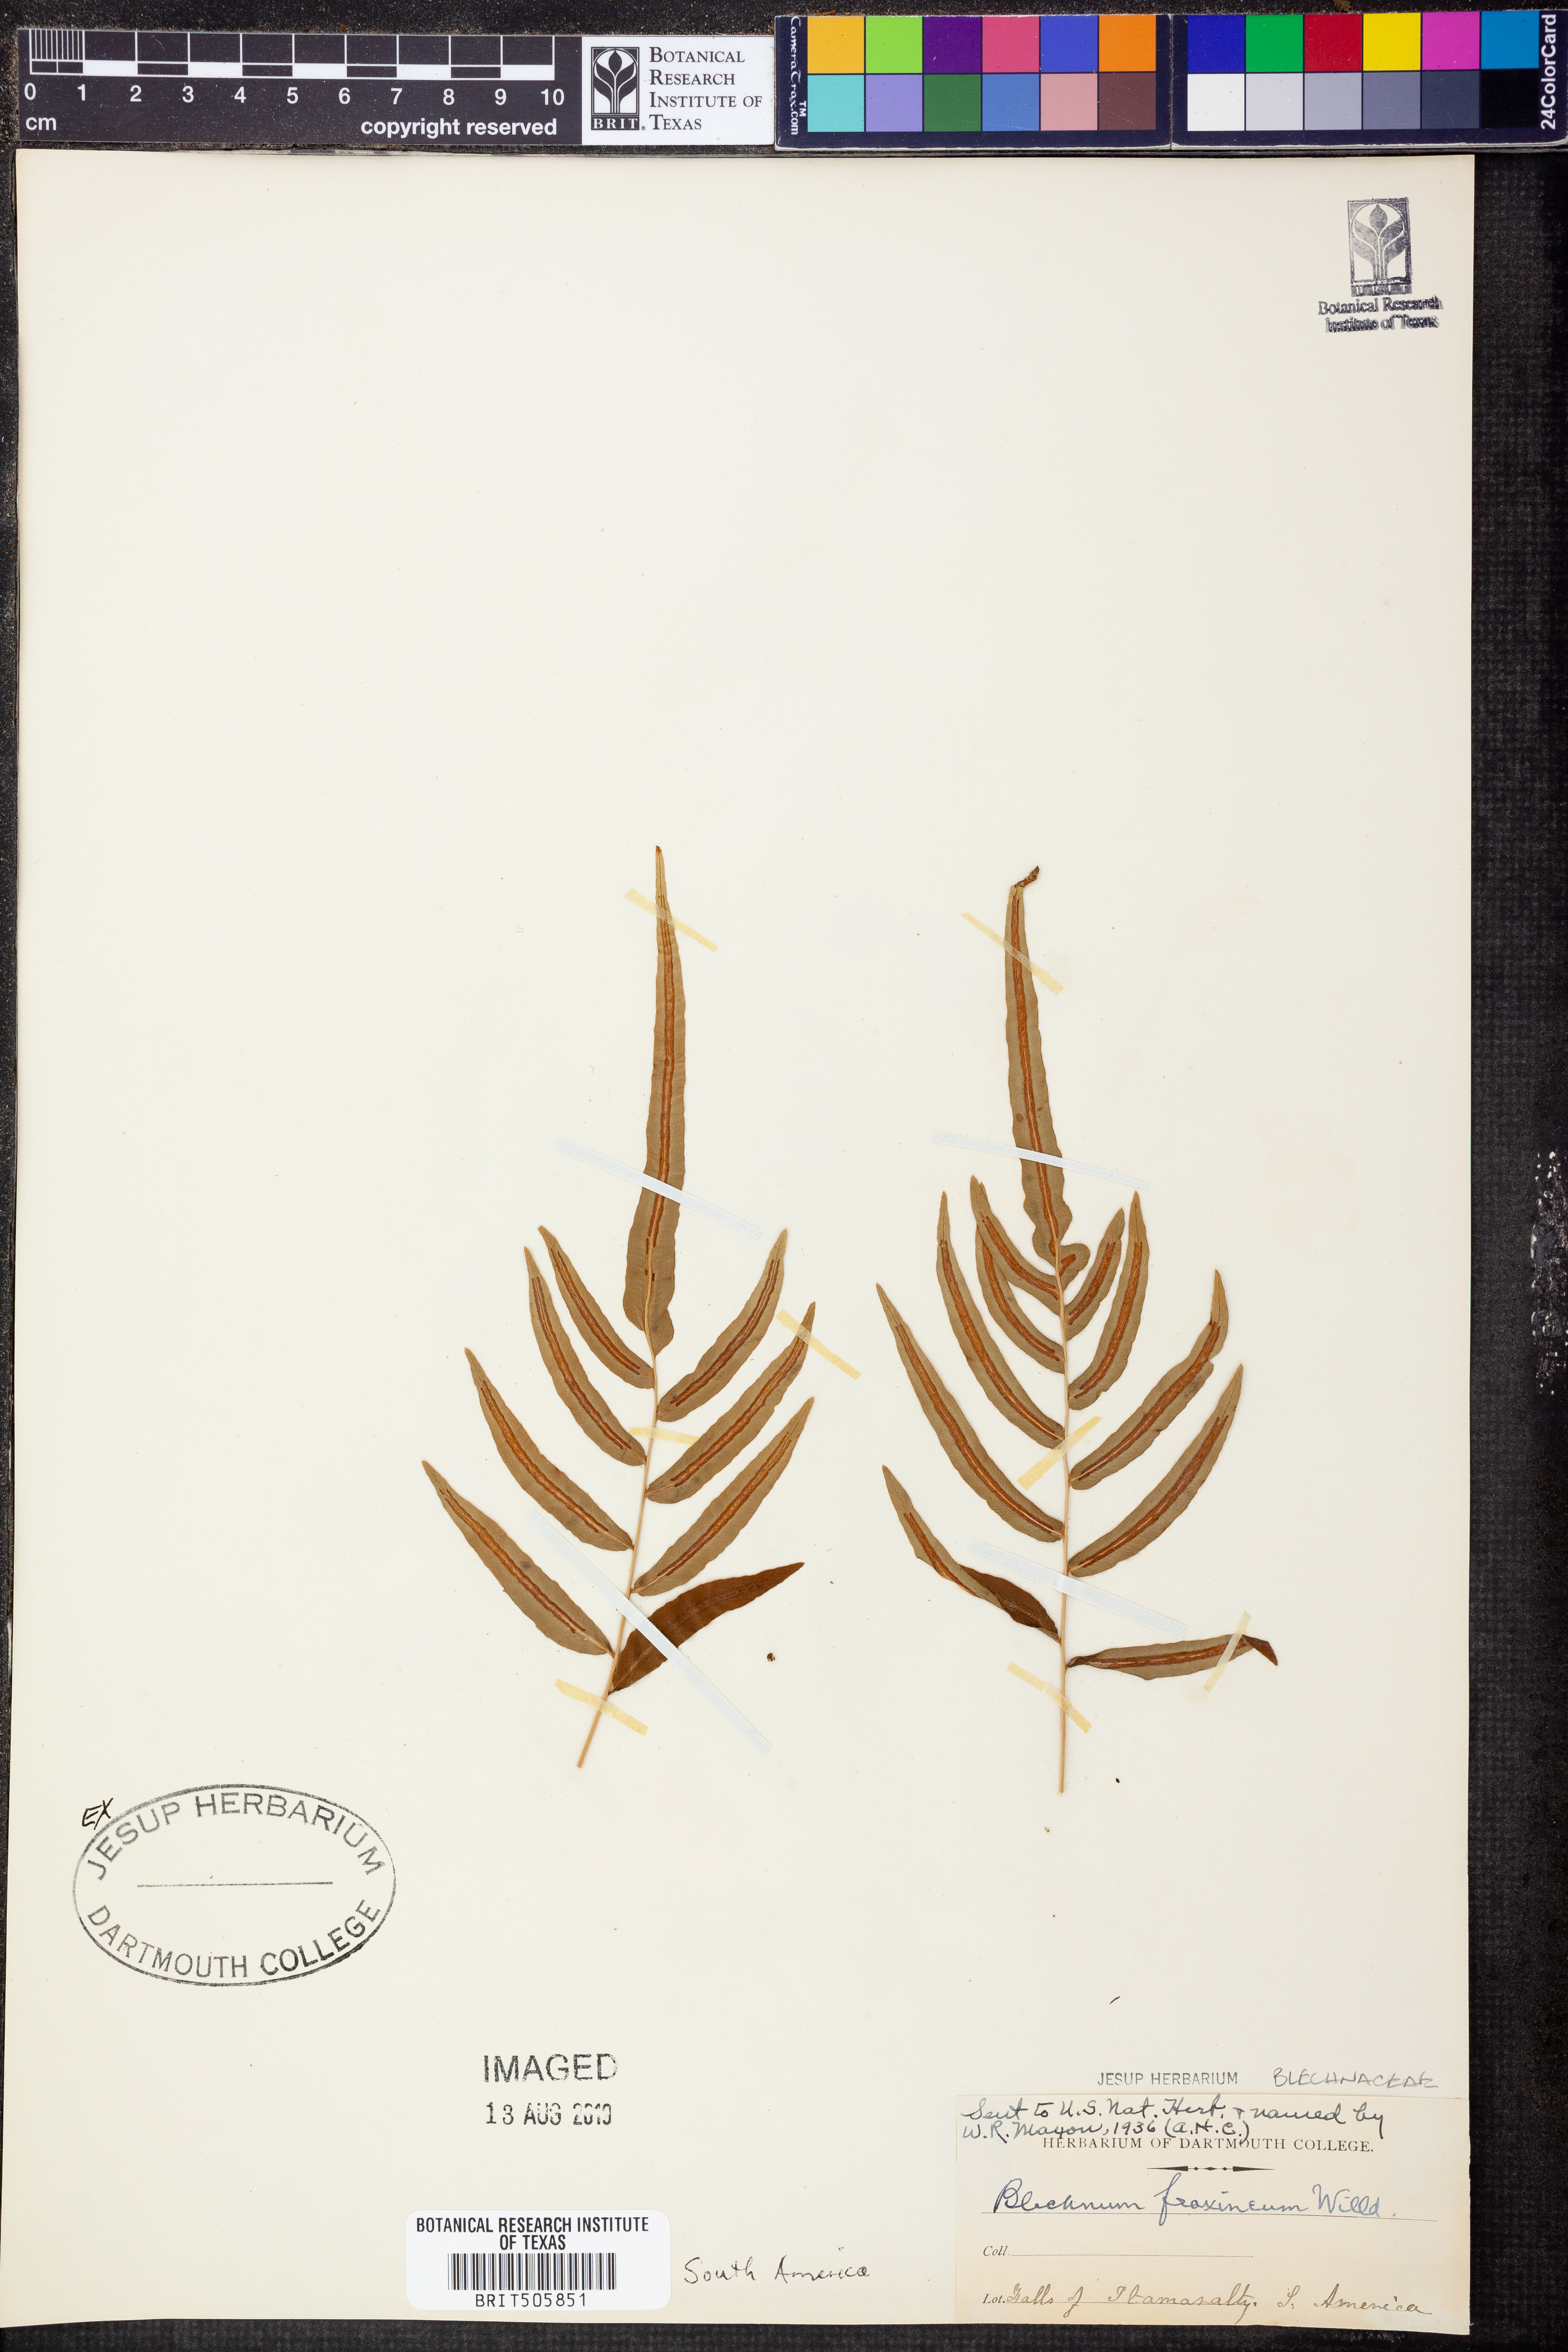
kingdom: Plantae
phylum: Tracheophyta
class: Polypodiopsida
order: Polypodiales
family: Blechnaceae
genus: Blechnum
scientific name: Blechnum gracile
